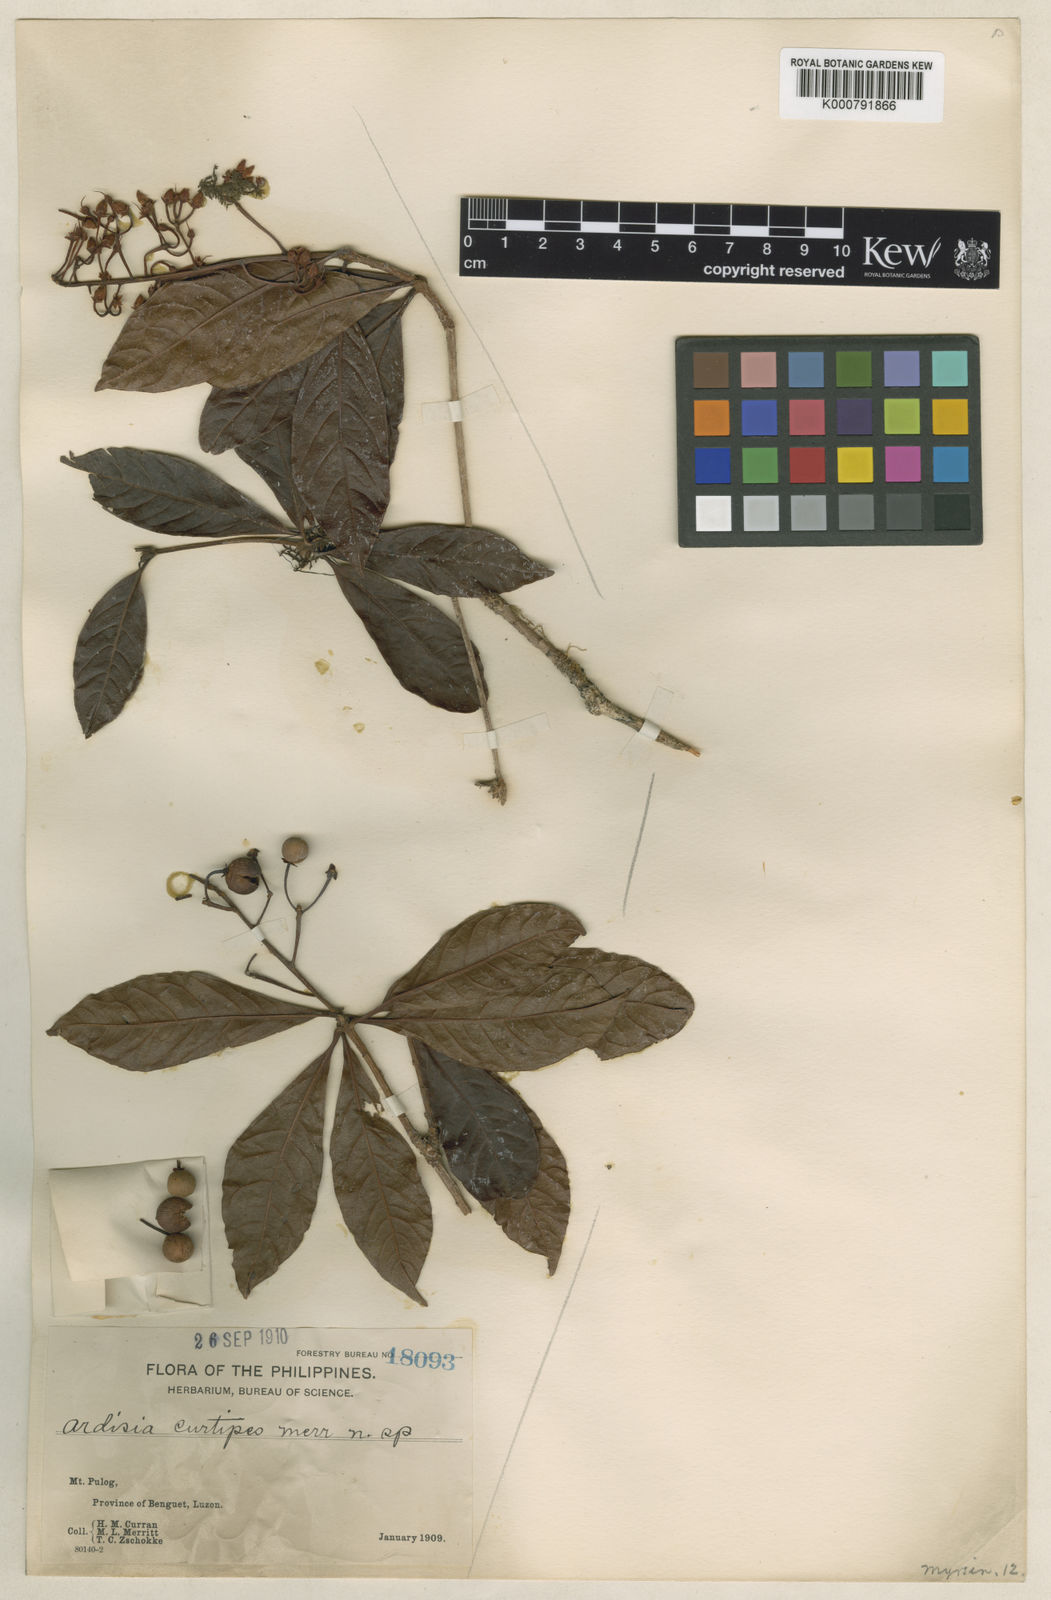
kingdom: Plantae
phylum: Tracheophyta
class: Magnoliopsida
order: Ericales
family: Primulaceae
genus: Ardisia
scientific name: Ardisia serrata
